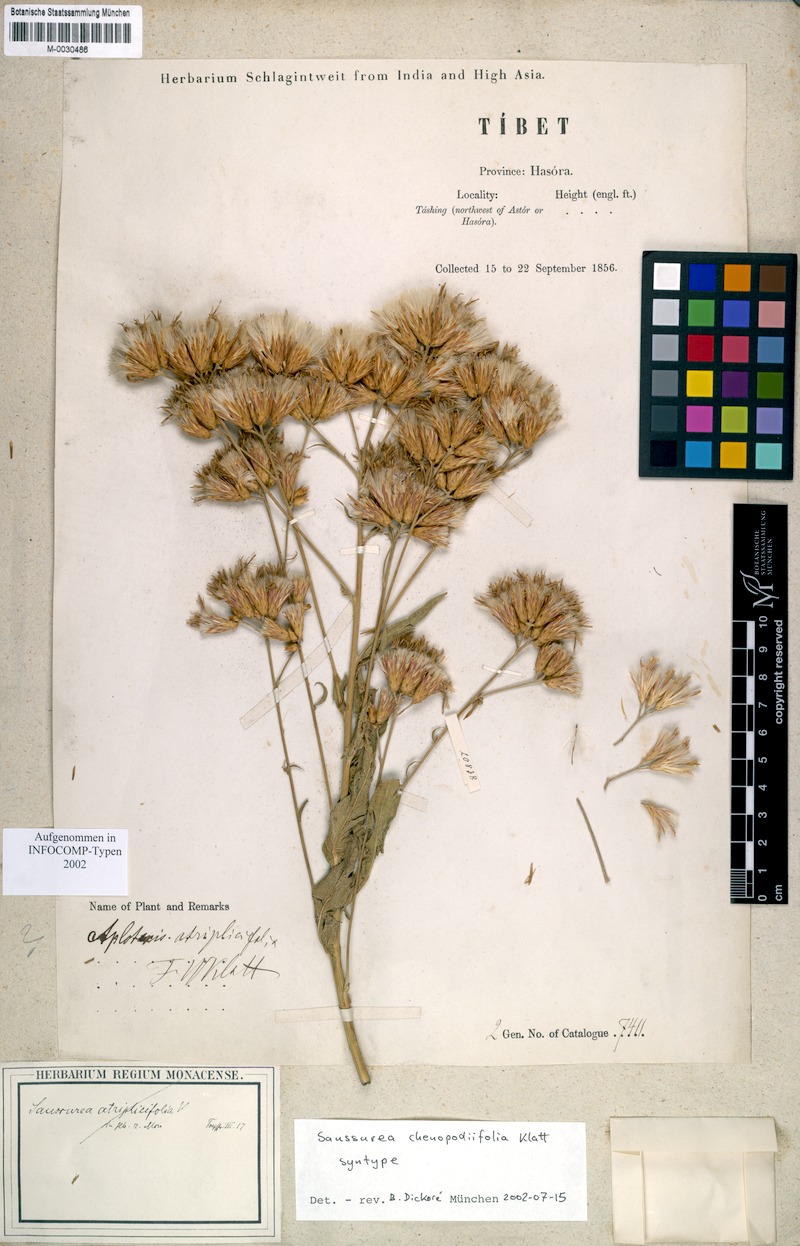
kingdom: Plantae
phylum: Tracheophyta
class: Magnoliopsida
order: Asterales
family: Asteraceae
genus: Jurinea
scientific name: Jurinea chenopodiifolia
